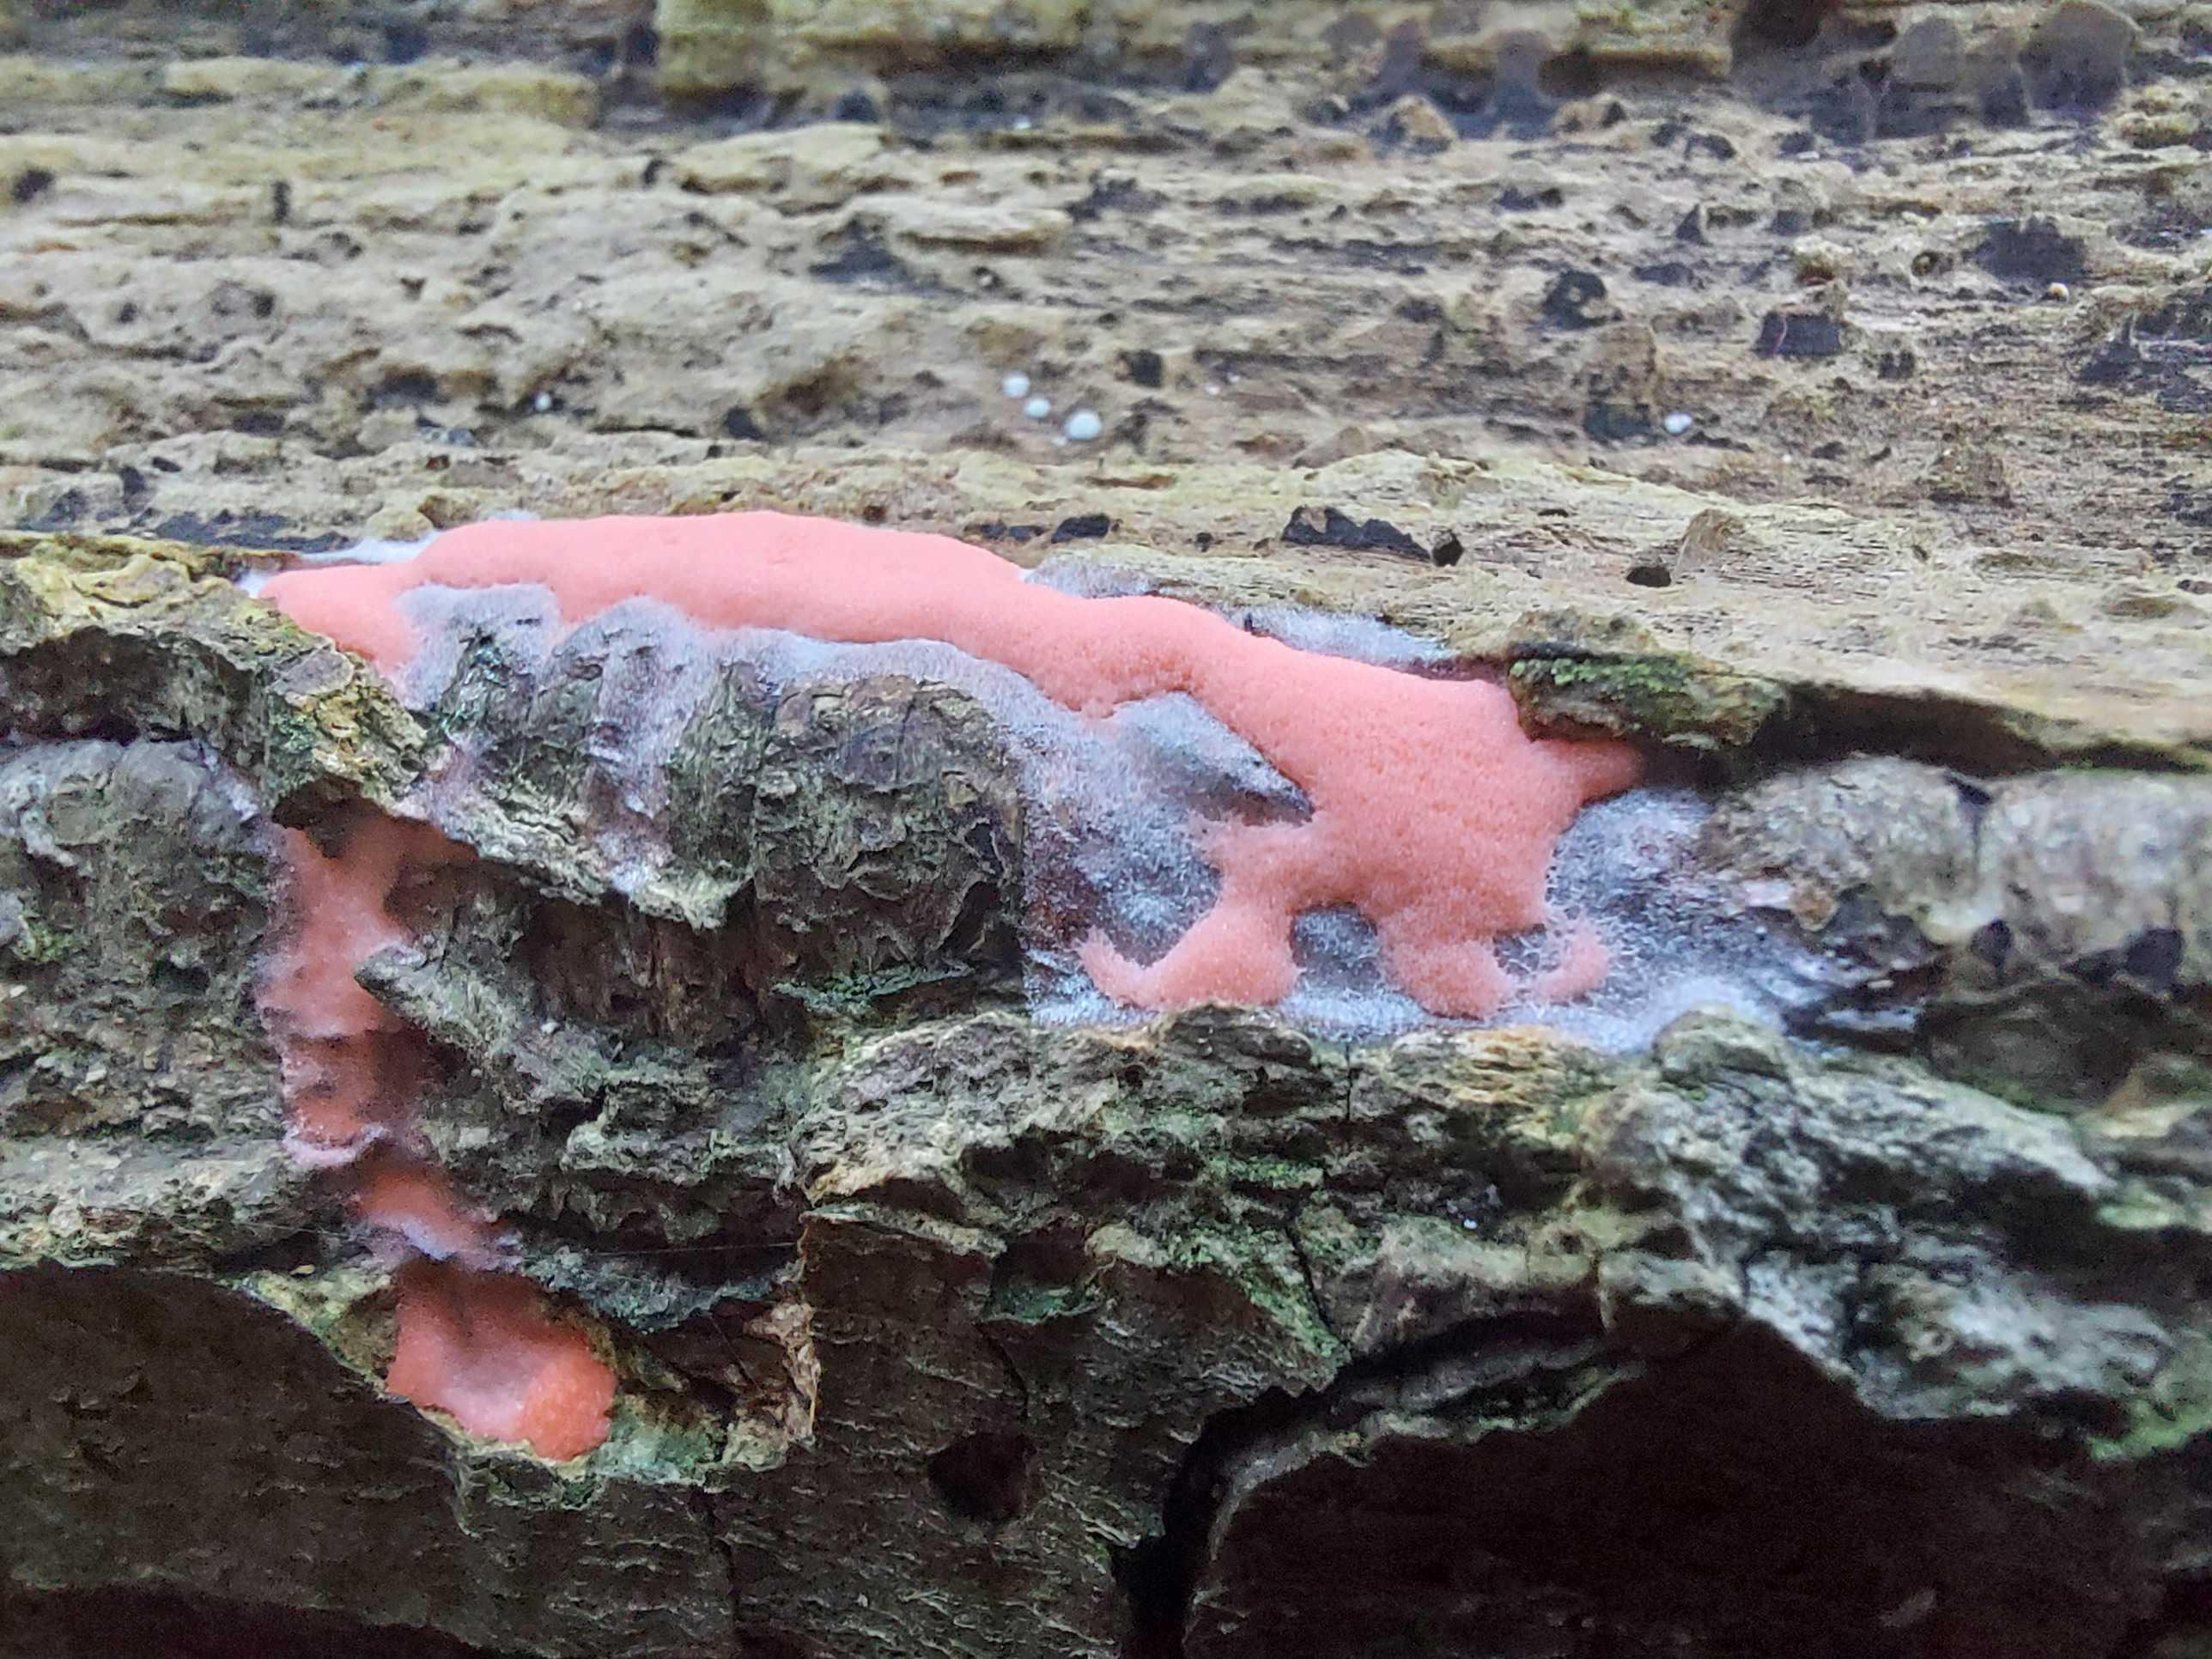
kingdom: Protozoa
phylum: Mycetozoa
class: Myxomycetes
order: Trichiales
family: Dictydiaethaliaceae
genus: Dictydiaethalium
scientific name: Dictydiaethalium plumbeum
